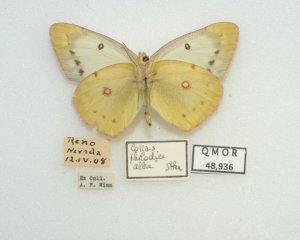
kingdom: Animalia
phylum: Arthropoda
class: Insecta
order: Lepidoptera
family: Pieridae
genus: Colias
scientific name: Colias philodice
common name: Clouded Sulphur
